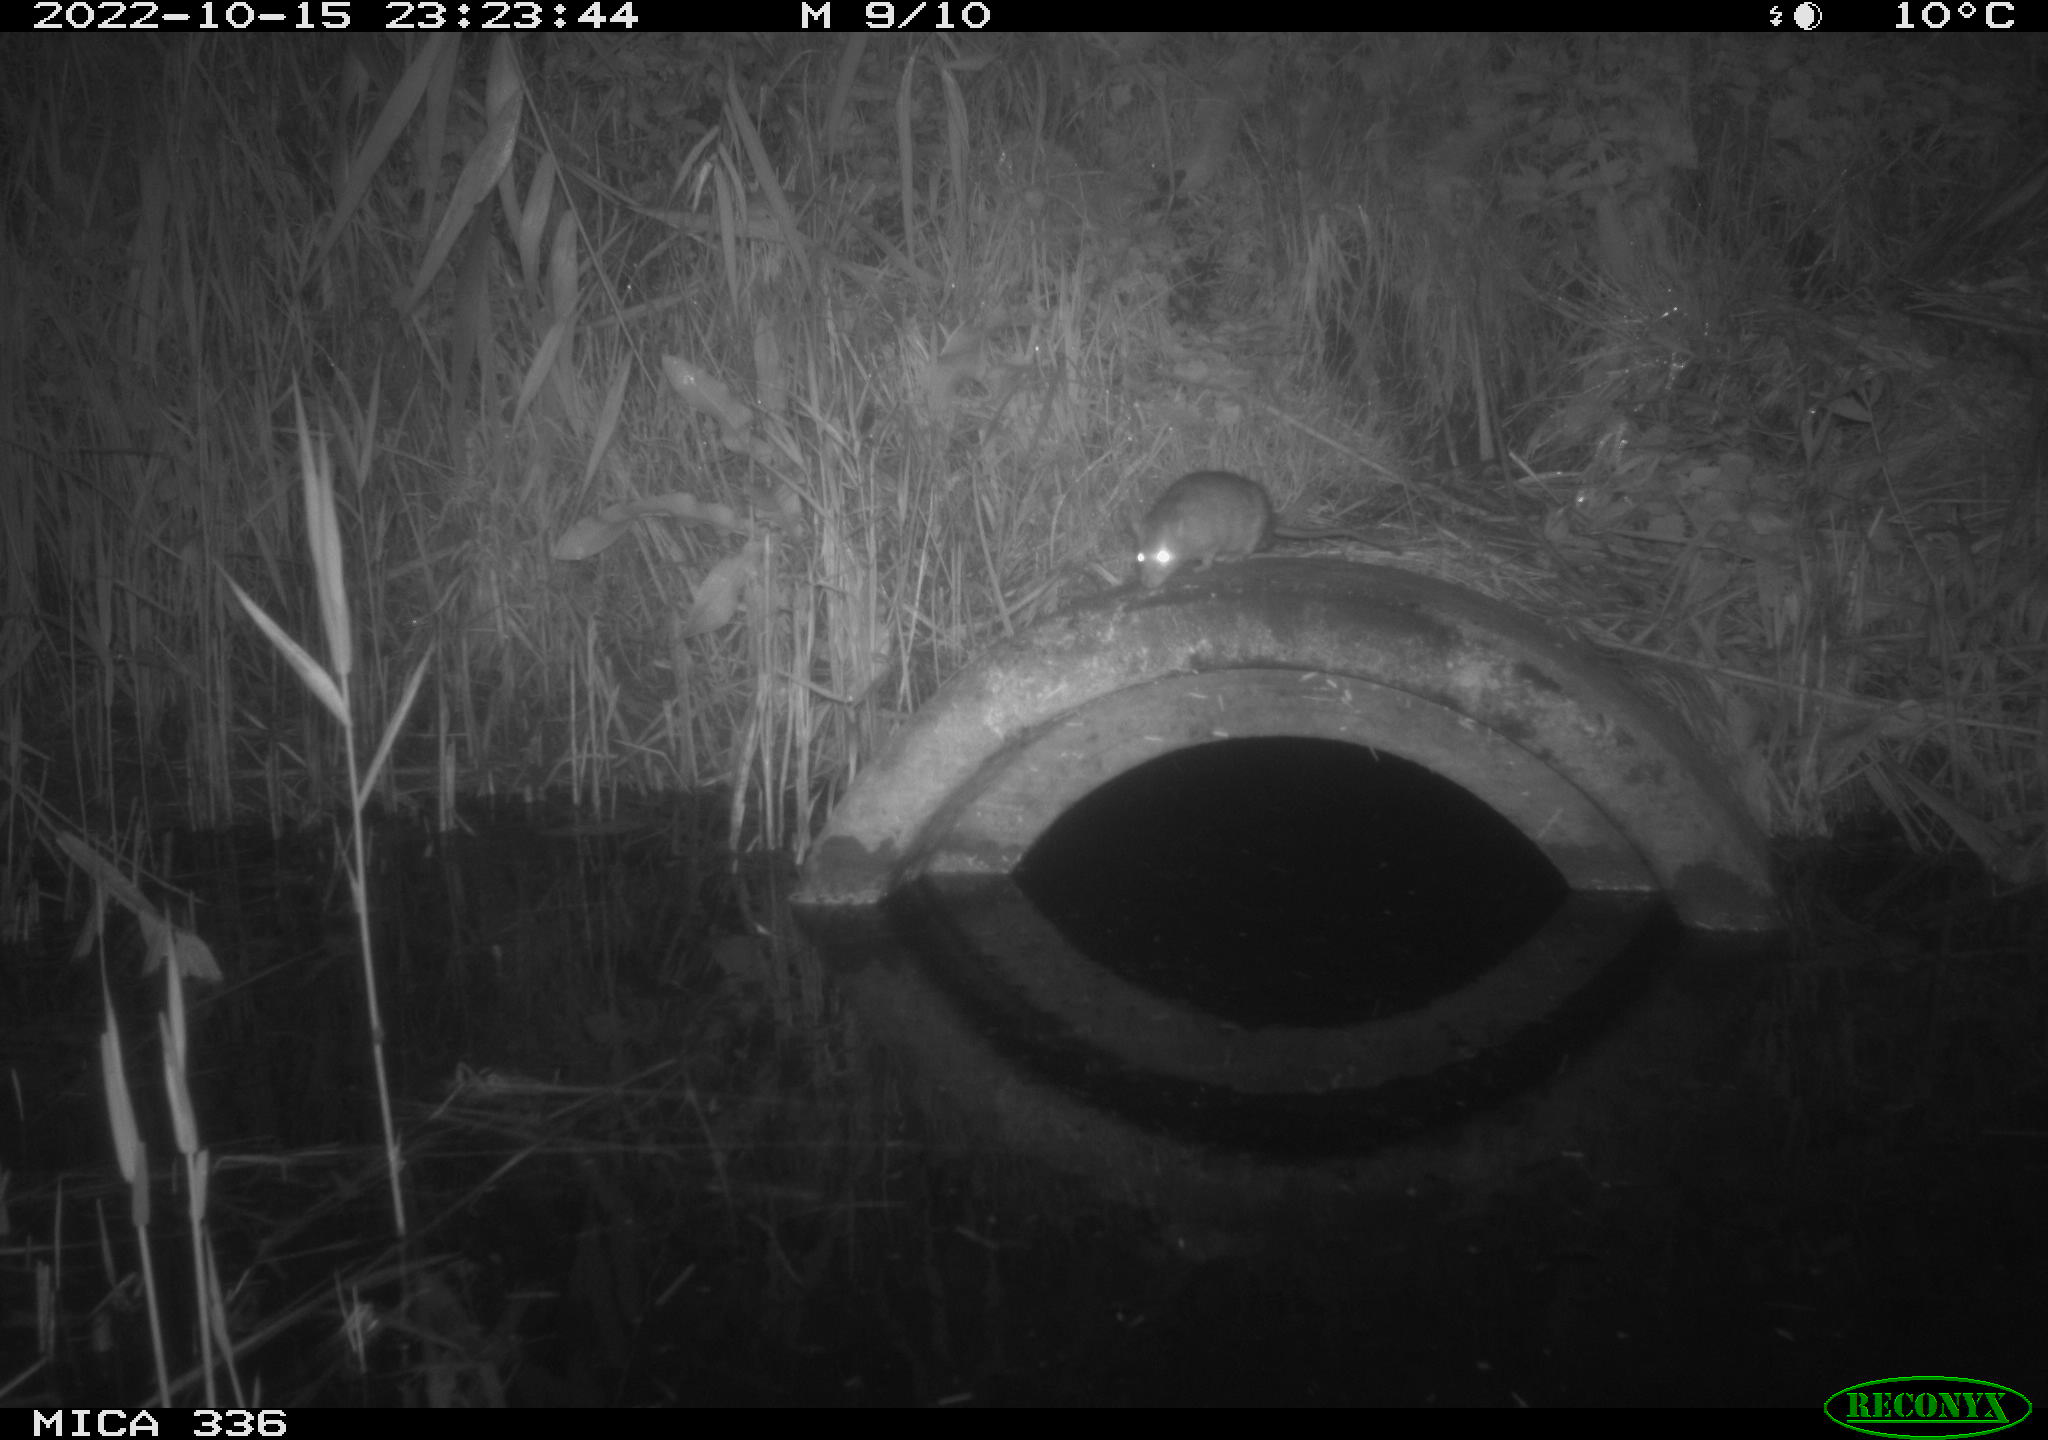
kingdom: Animalia
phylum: Chordata
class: Mammalia
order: Rodentia
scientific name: Rodentia
